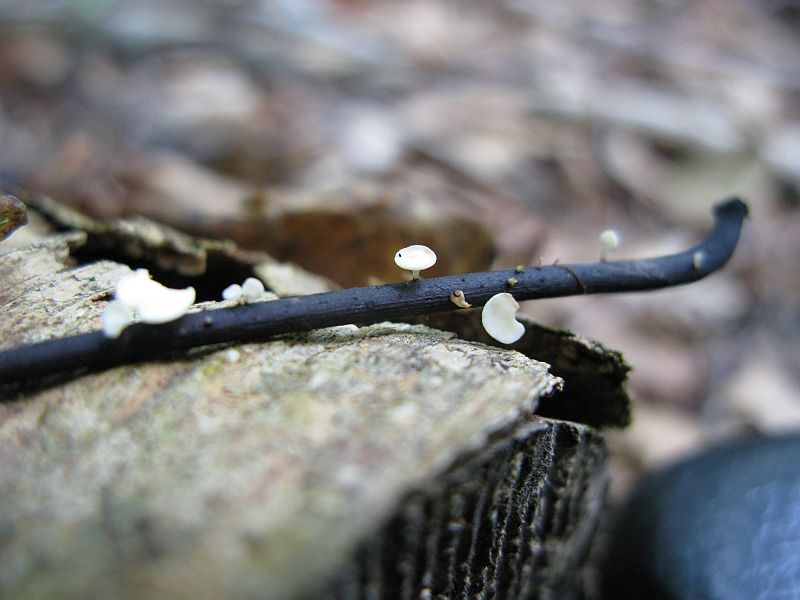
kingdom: Fungi
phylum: Ascomycota
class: Leotiomycetes
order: Helotiales
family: Helotiaceae
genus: Hymenoscyphus
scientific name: Hymenoscyphus fraxineus
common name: asketoptørre-stilkskive
